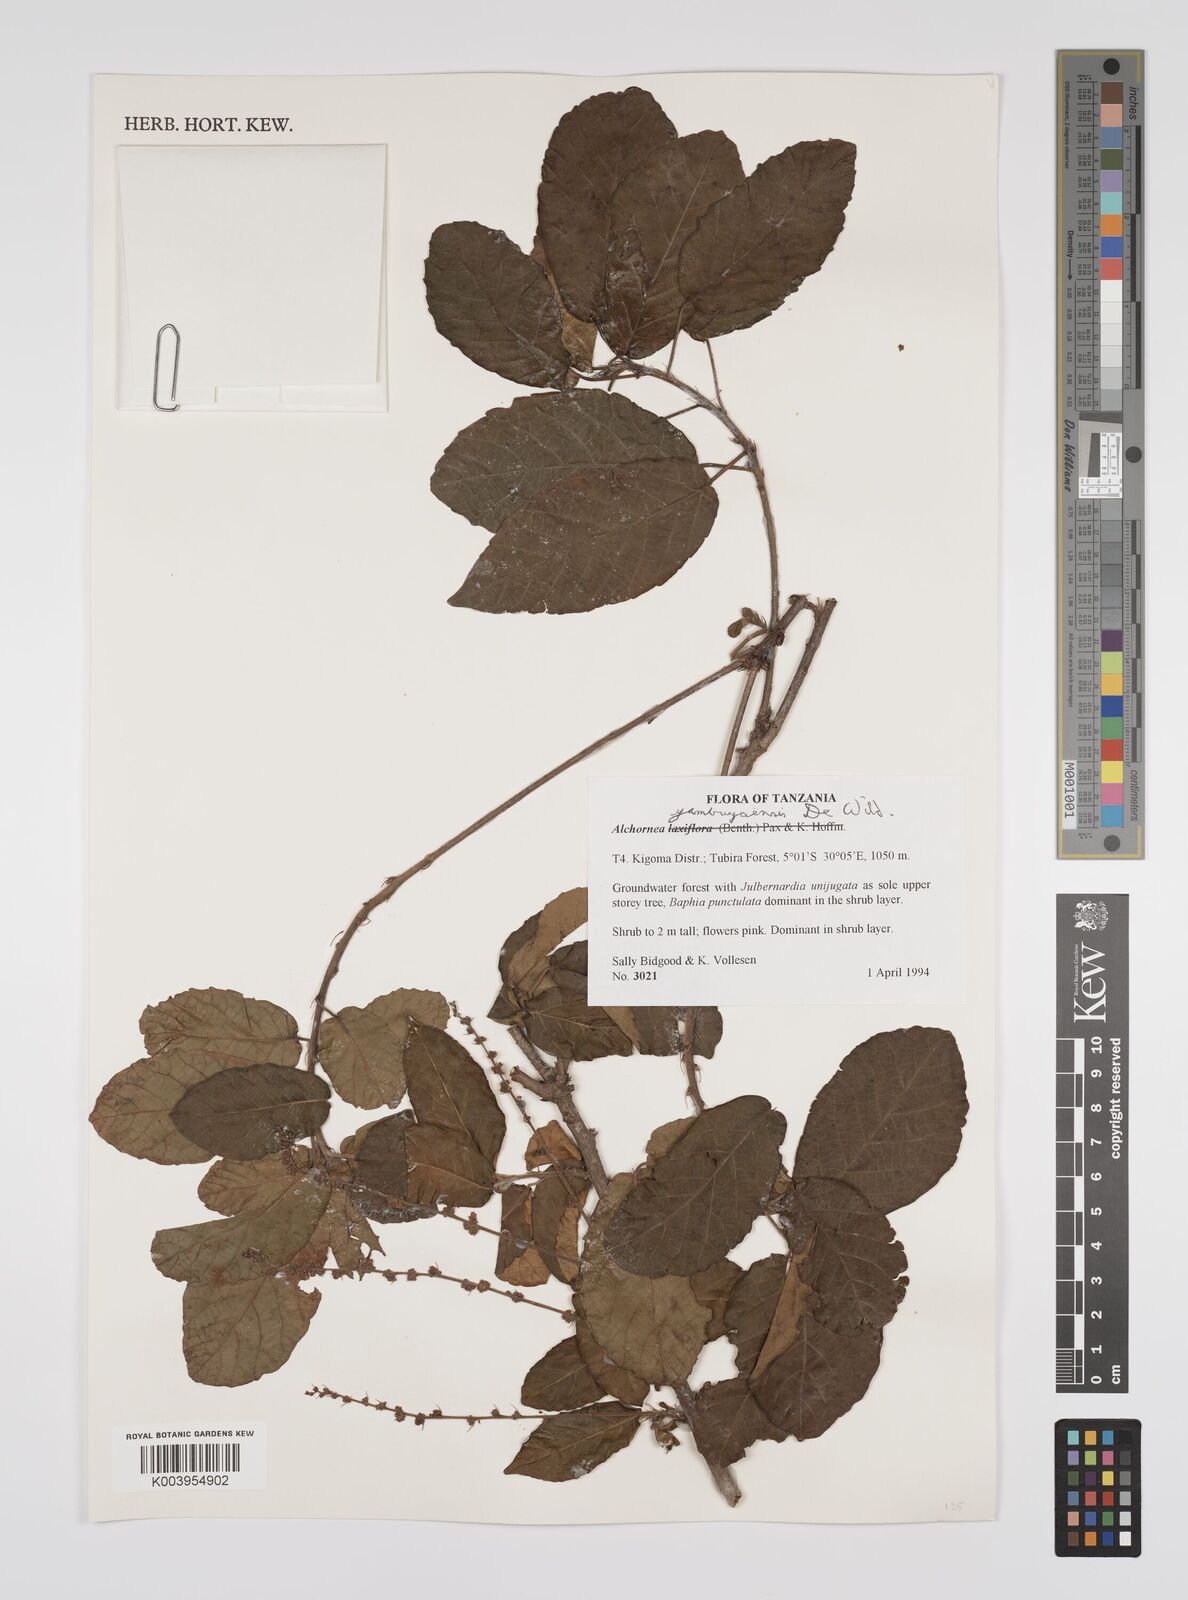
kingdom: Plantae
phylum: Tracheophyta
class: Magnoliopsida
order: Malpighiales
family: Euphorbiaceae
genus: Alchornea
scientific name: Alchornea yambuyaensis
